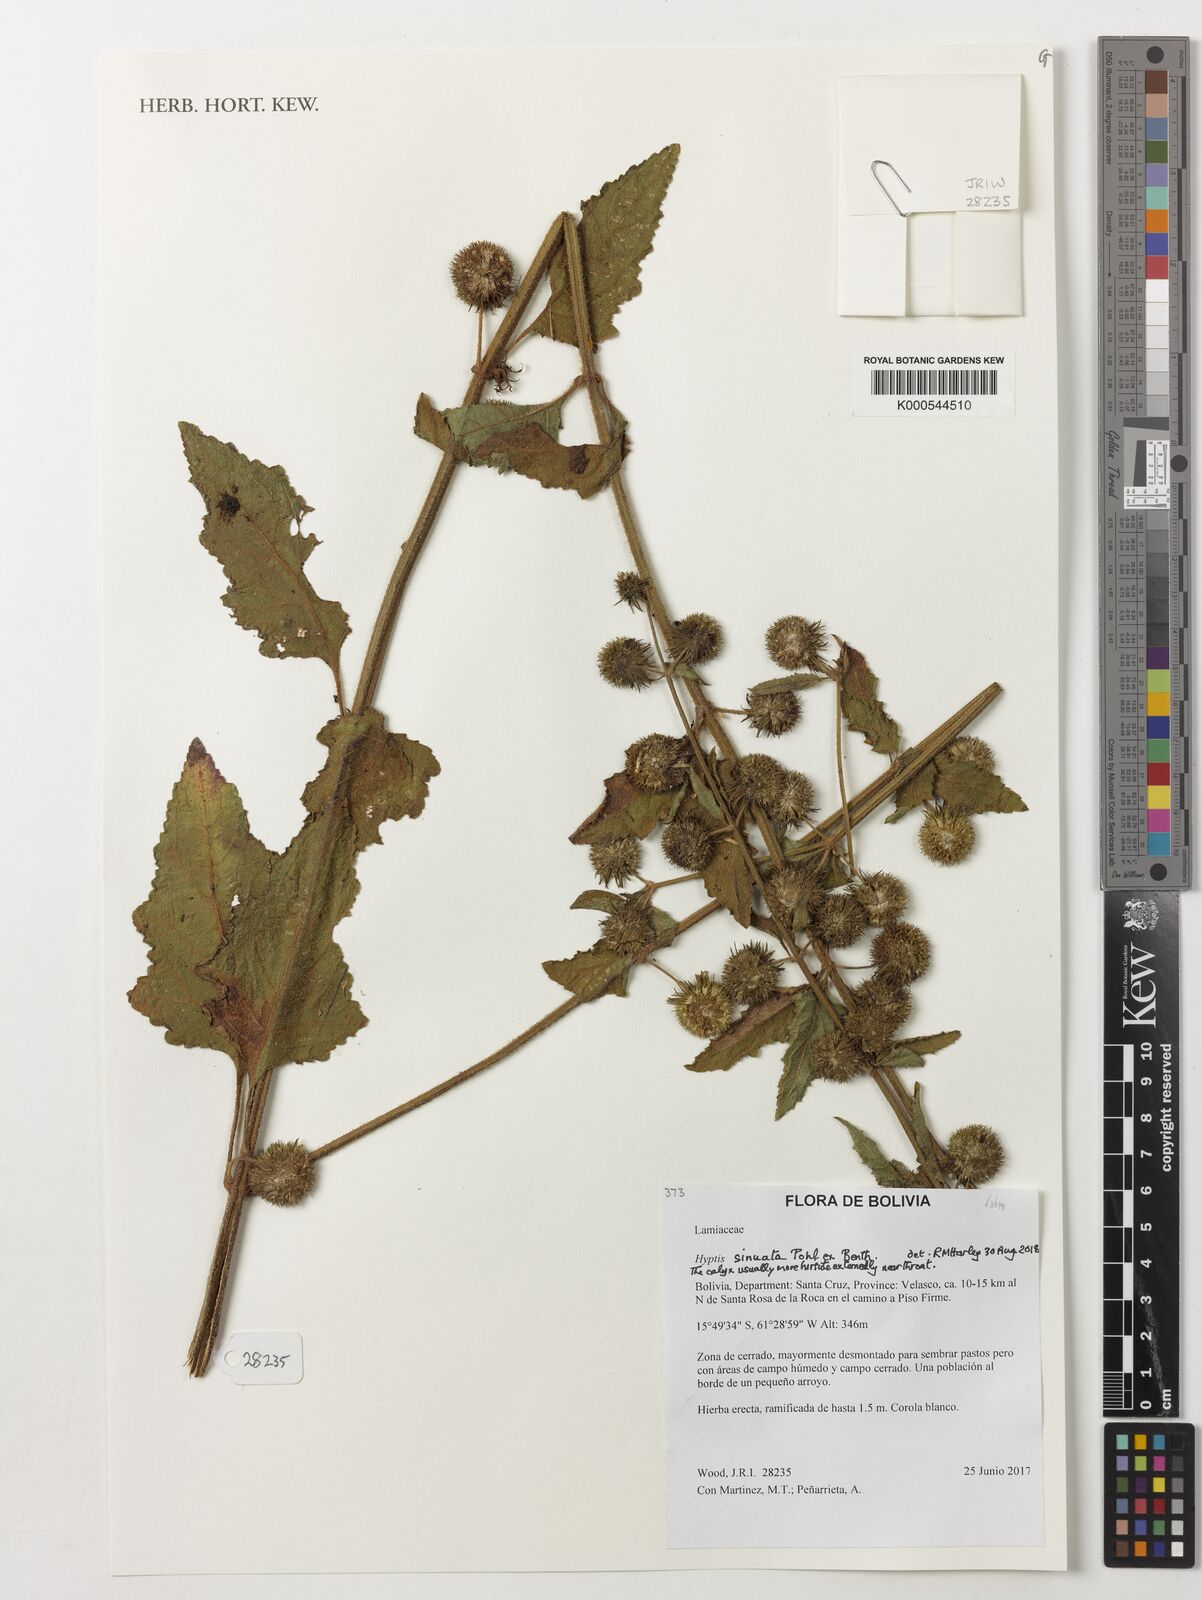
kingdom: Plantae
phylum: Tracheophyta
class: Magnoliopsida
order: Lamiales
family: Lamiaceae
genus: Hyptis
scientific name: Hyptis sinuata
